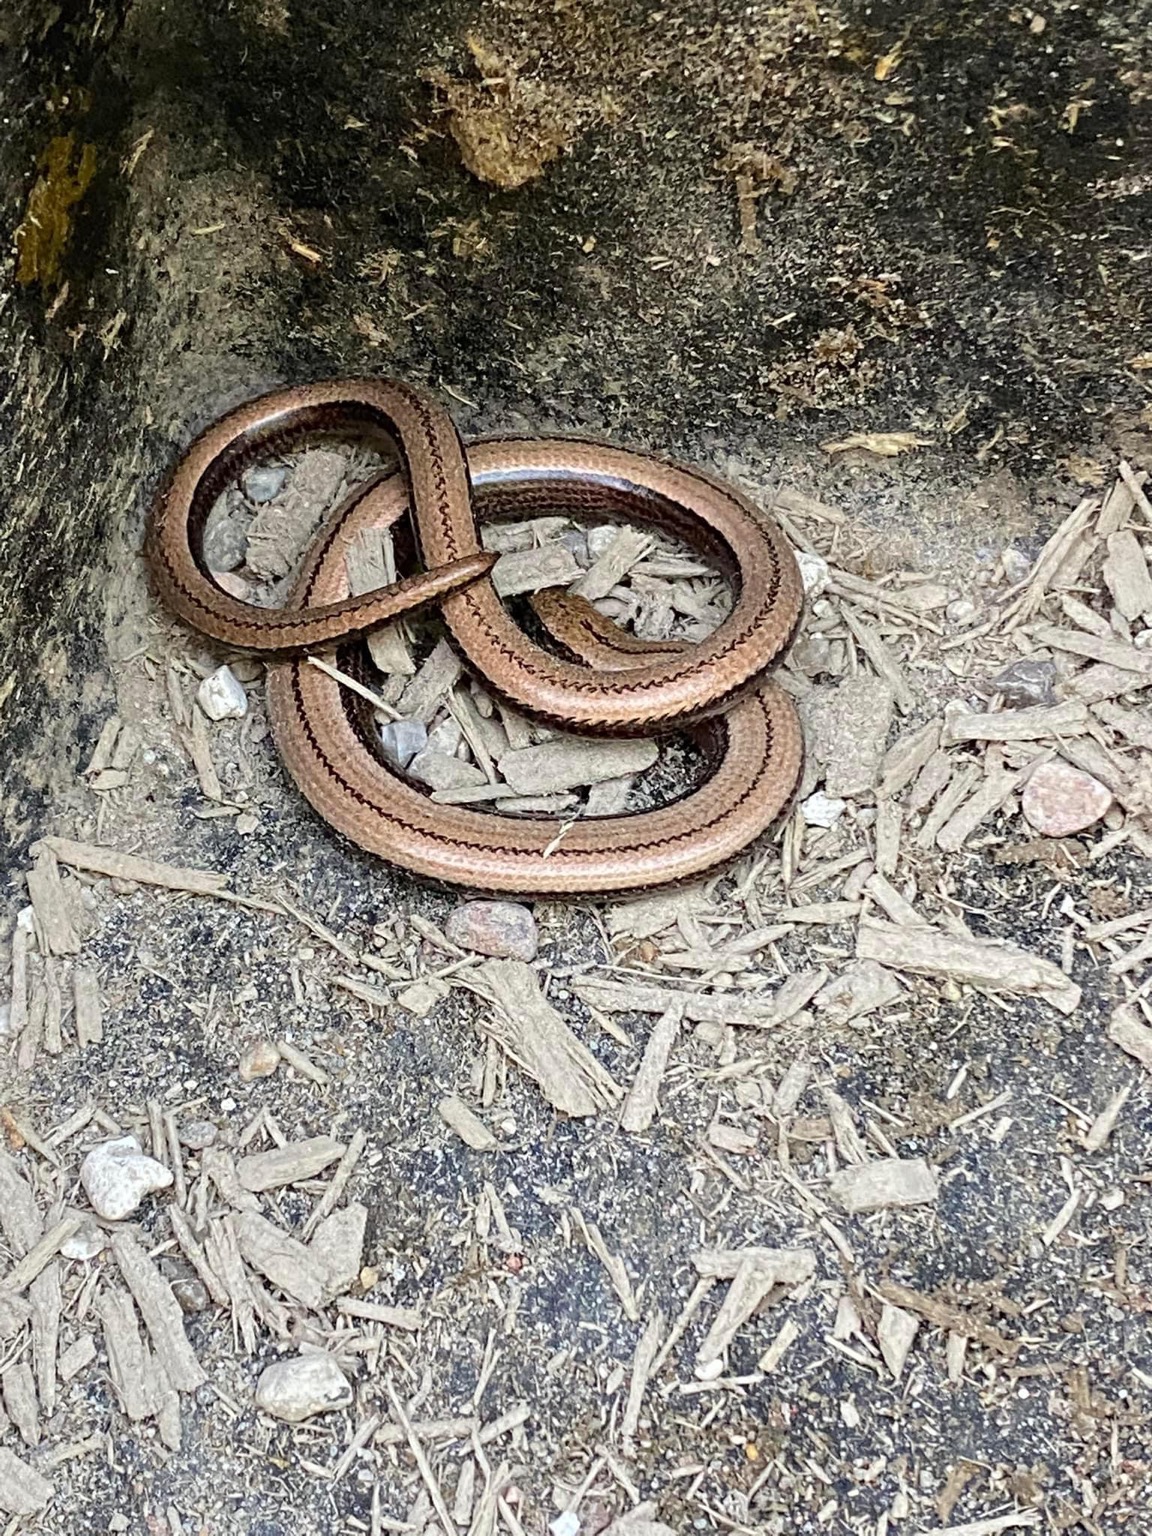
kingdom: Animalia
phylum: Chordata
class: Squamata
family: Anguidae
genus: Anguis
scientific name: Anguis fragilis
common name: Stålorm
